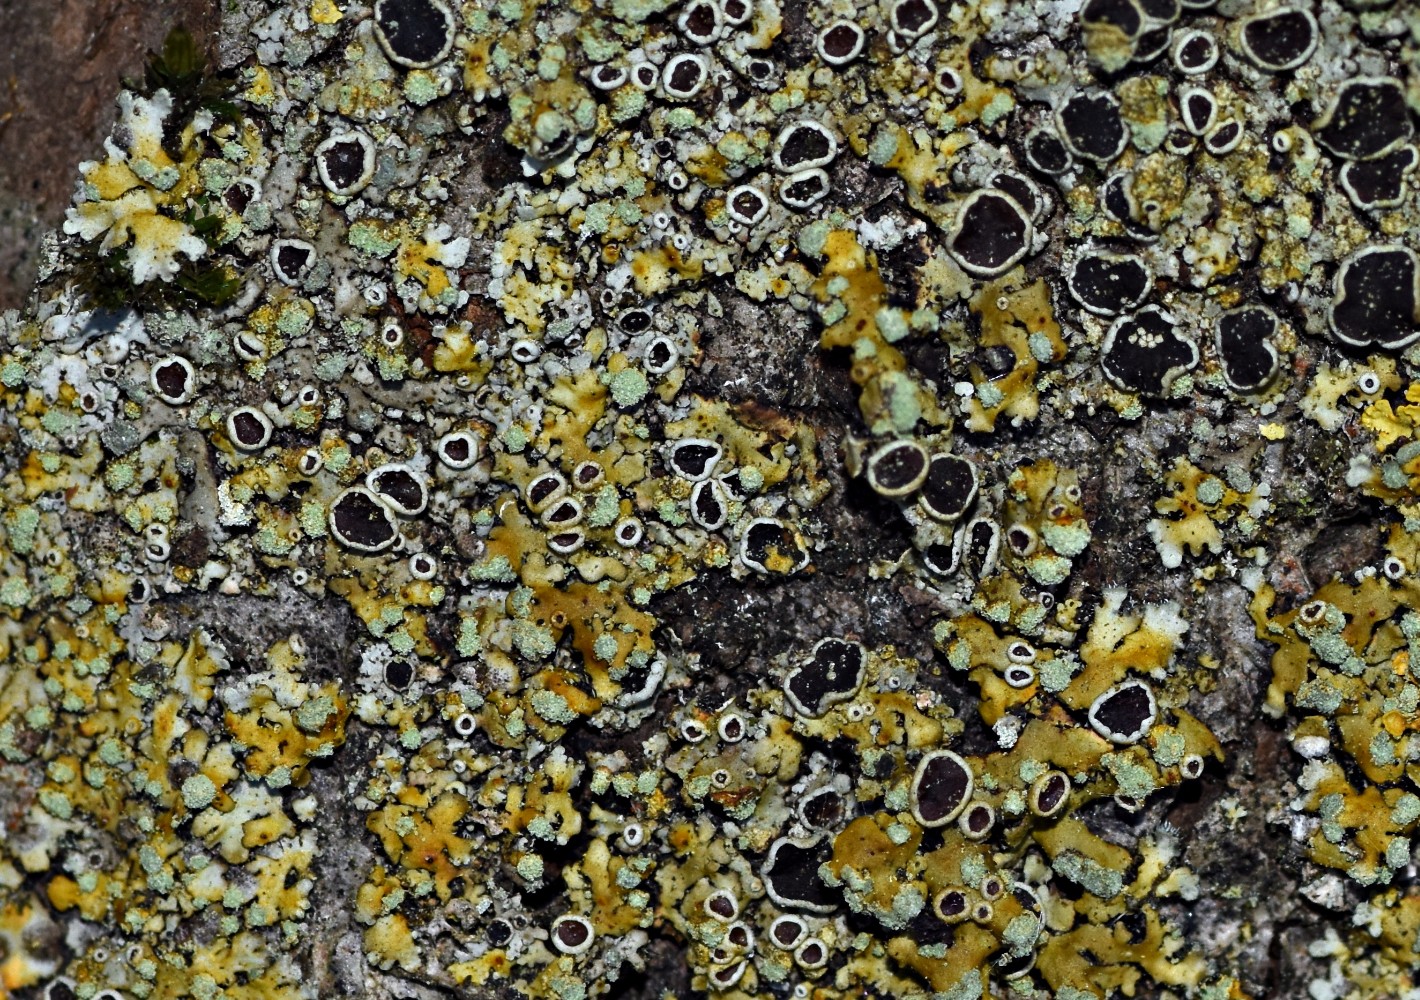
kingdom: Fungi
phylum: Ascomycota
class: Lecanoromycetes
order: Caliciales
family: Physciaceae
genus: Phaeophyscia
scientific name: Phaeophyscia orbicularis
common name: grågrøn rosetlav
